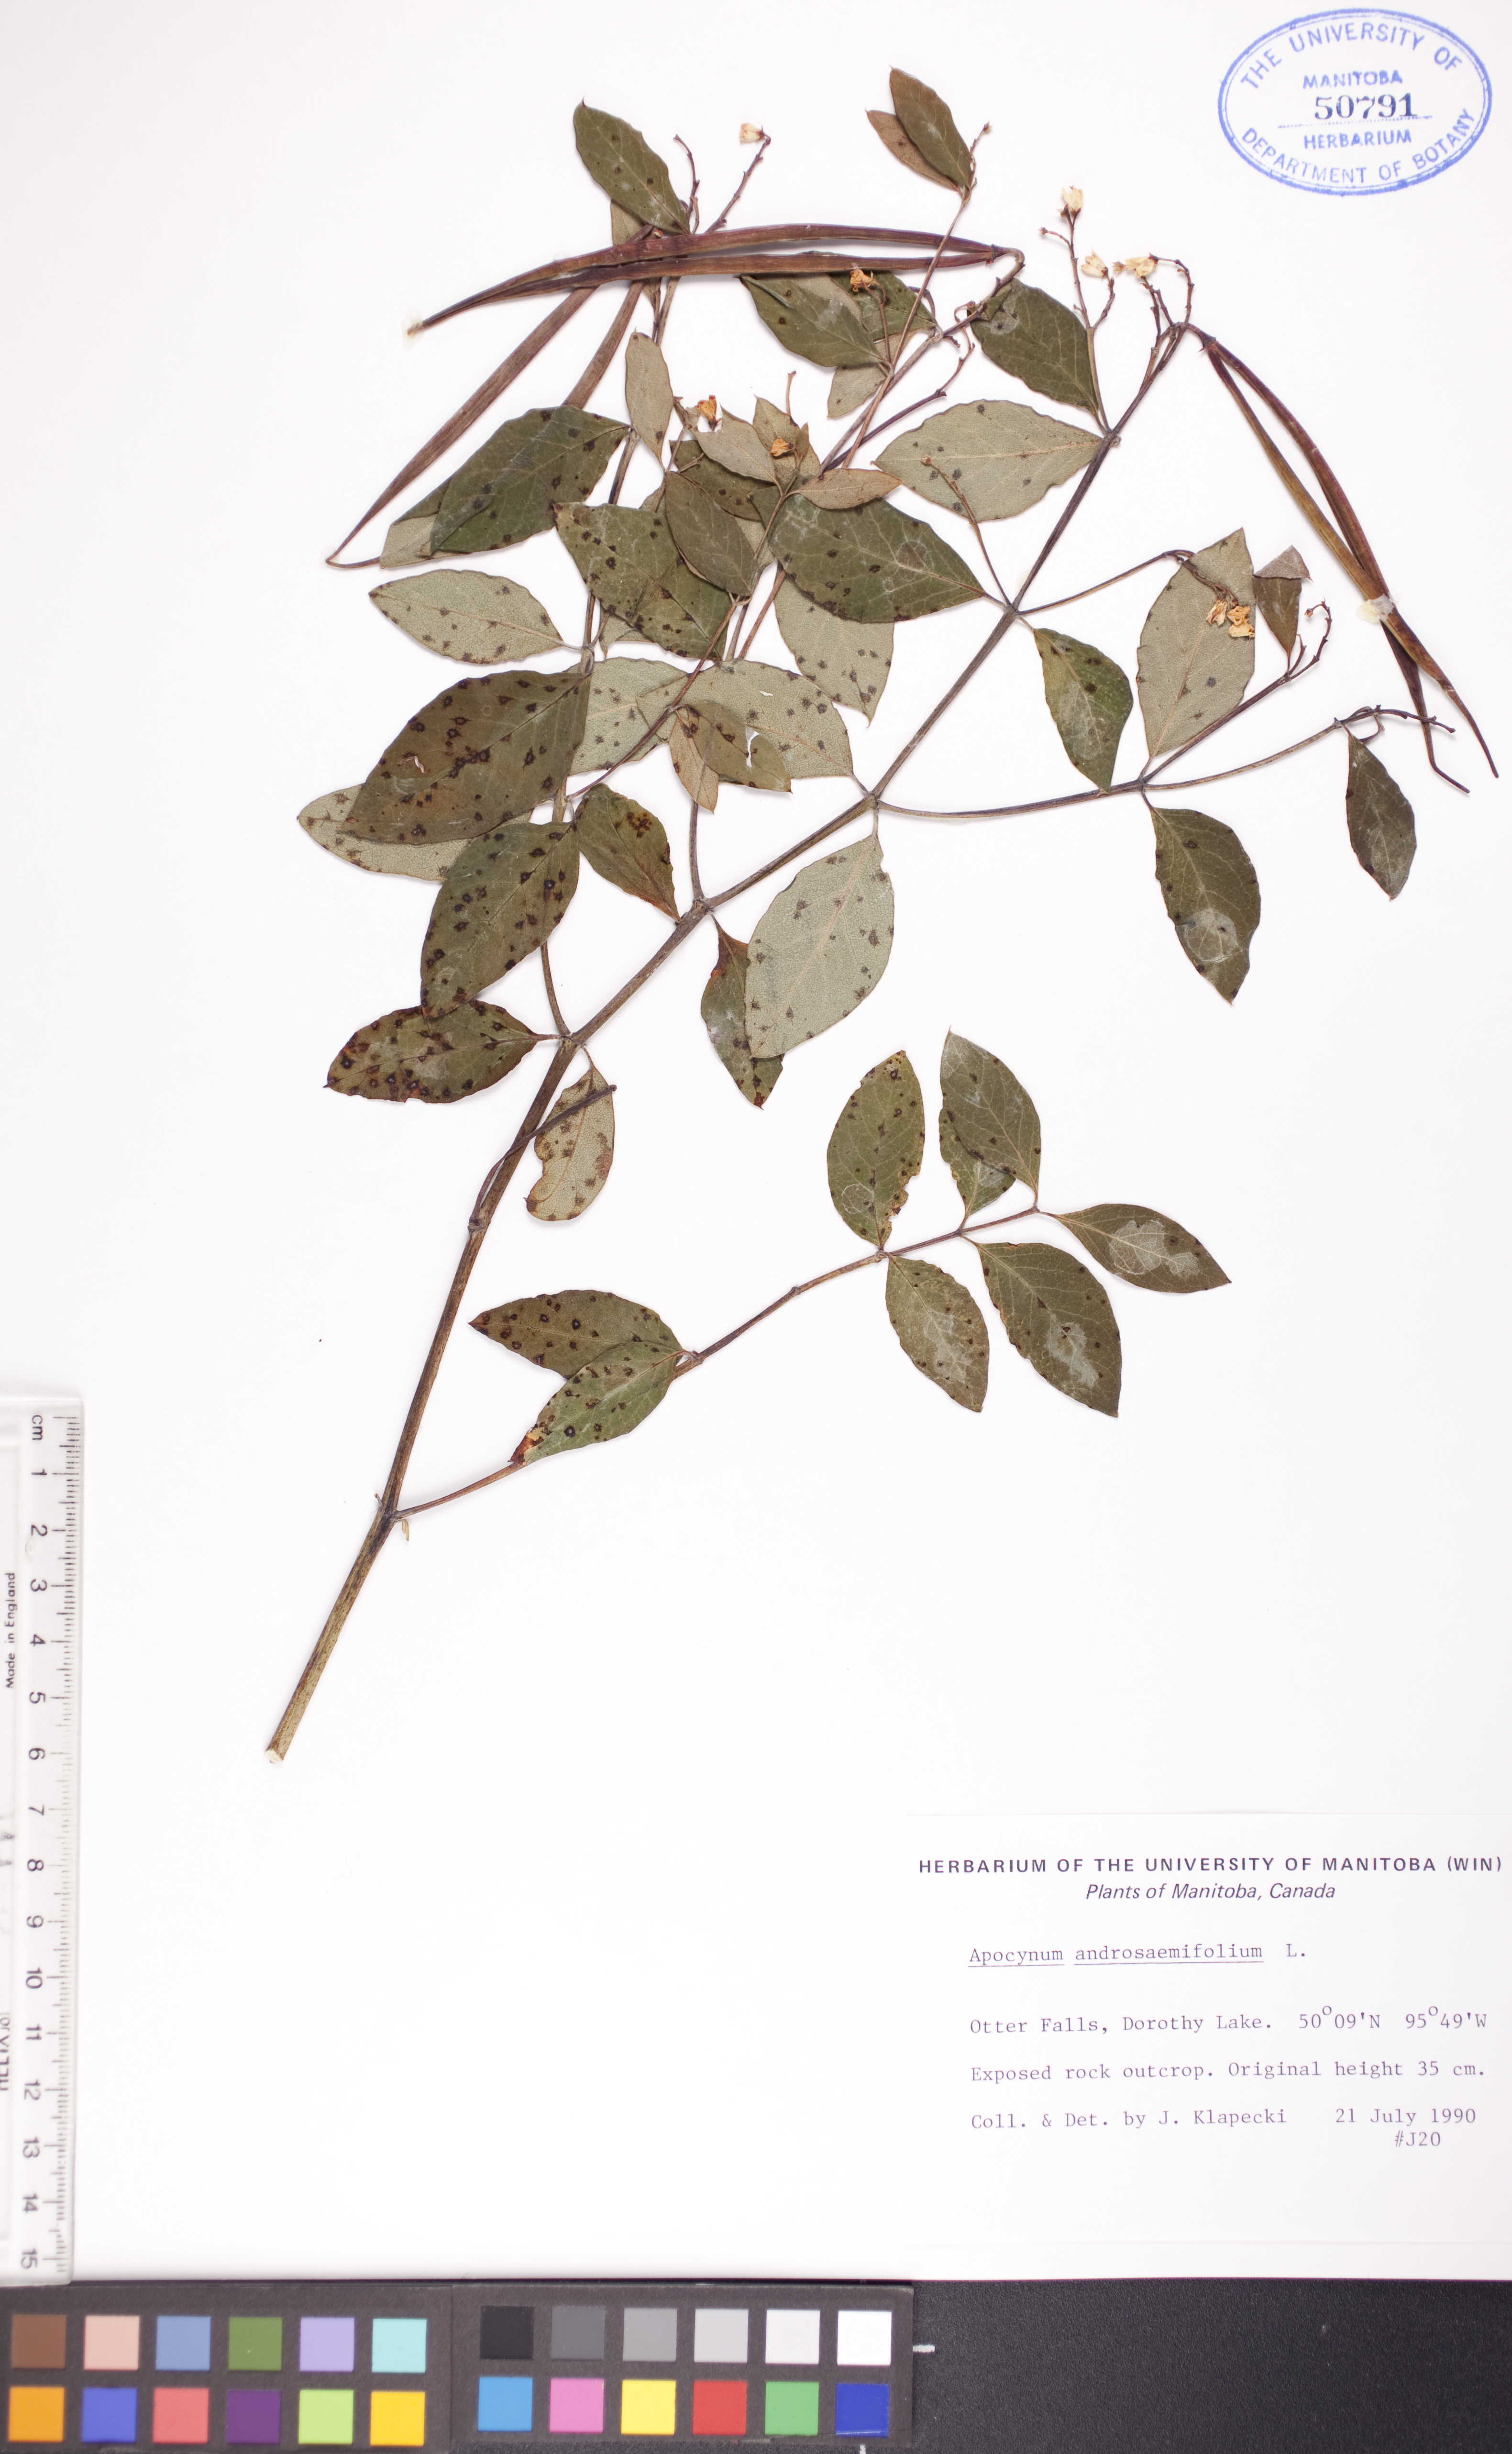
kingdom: Plantae
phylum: Tracheophyta
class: Magnoliopsida
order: Gentianales
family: Apocynaceae
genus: Apocynum
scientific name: Apocynum androsaemifolium
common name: Spreading dogbane
